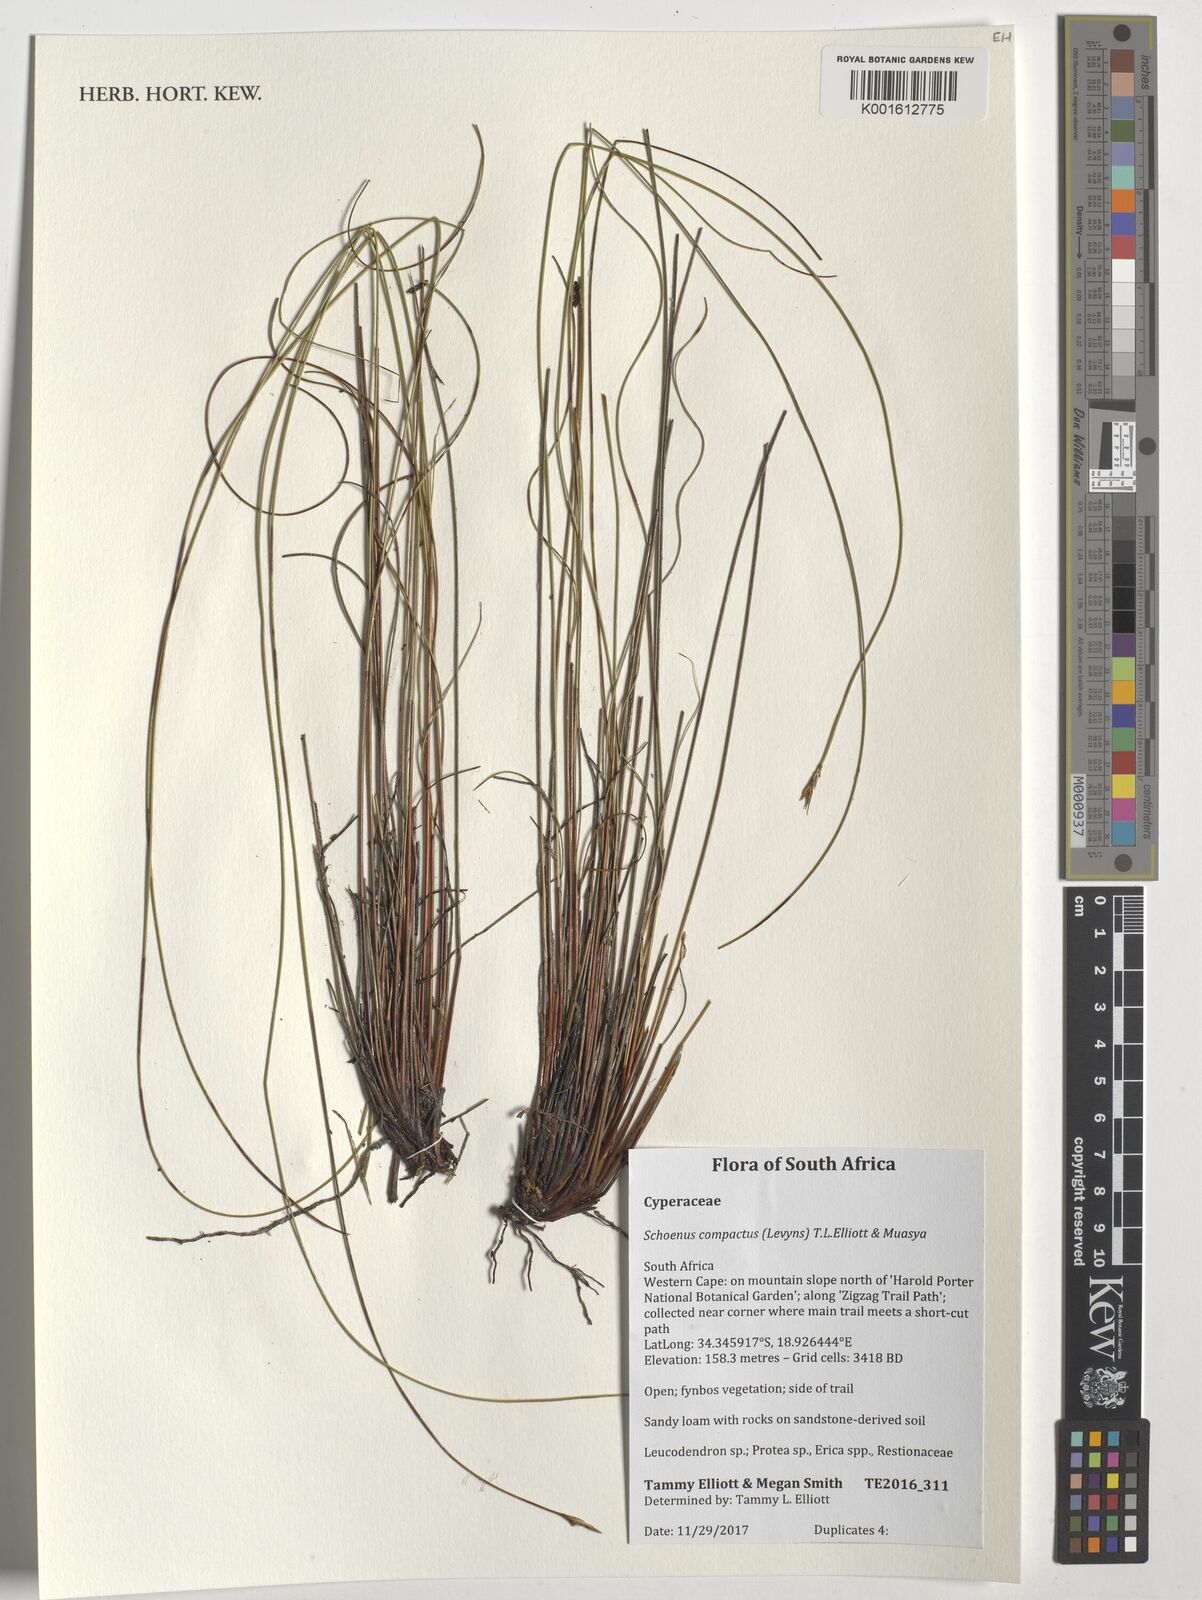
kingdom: Plantae
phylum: Tracheophyta
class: Liliopsida
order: Poales
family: Cyperaceae
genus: Schoenus
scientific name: Schoenus compactus
